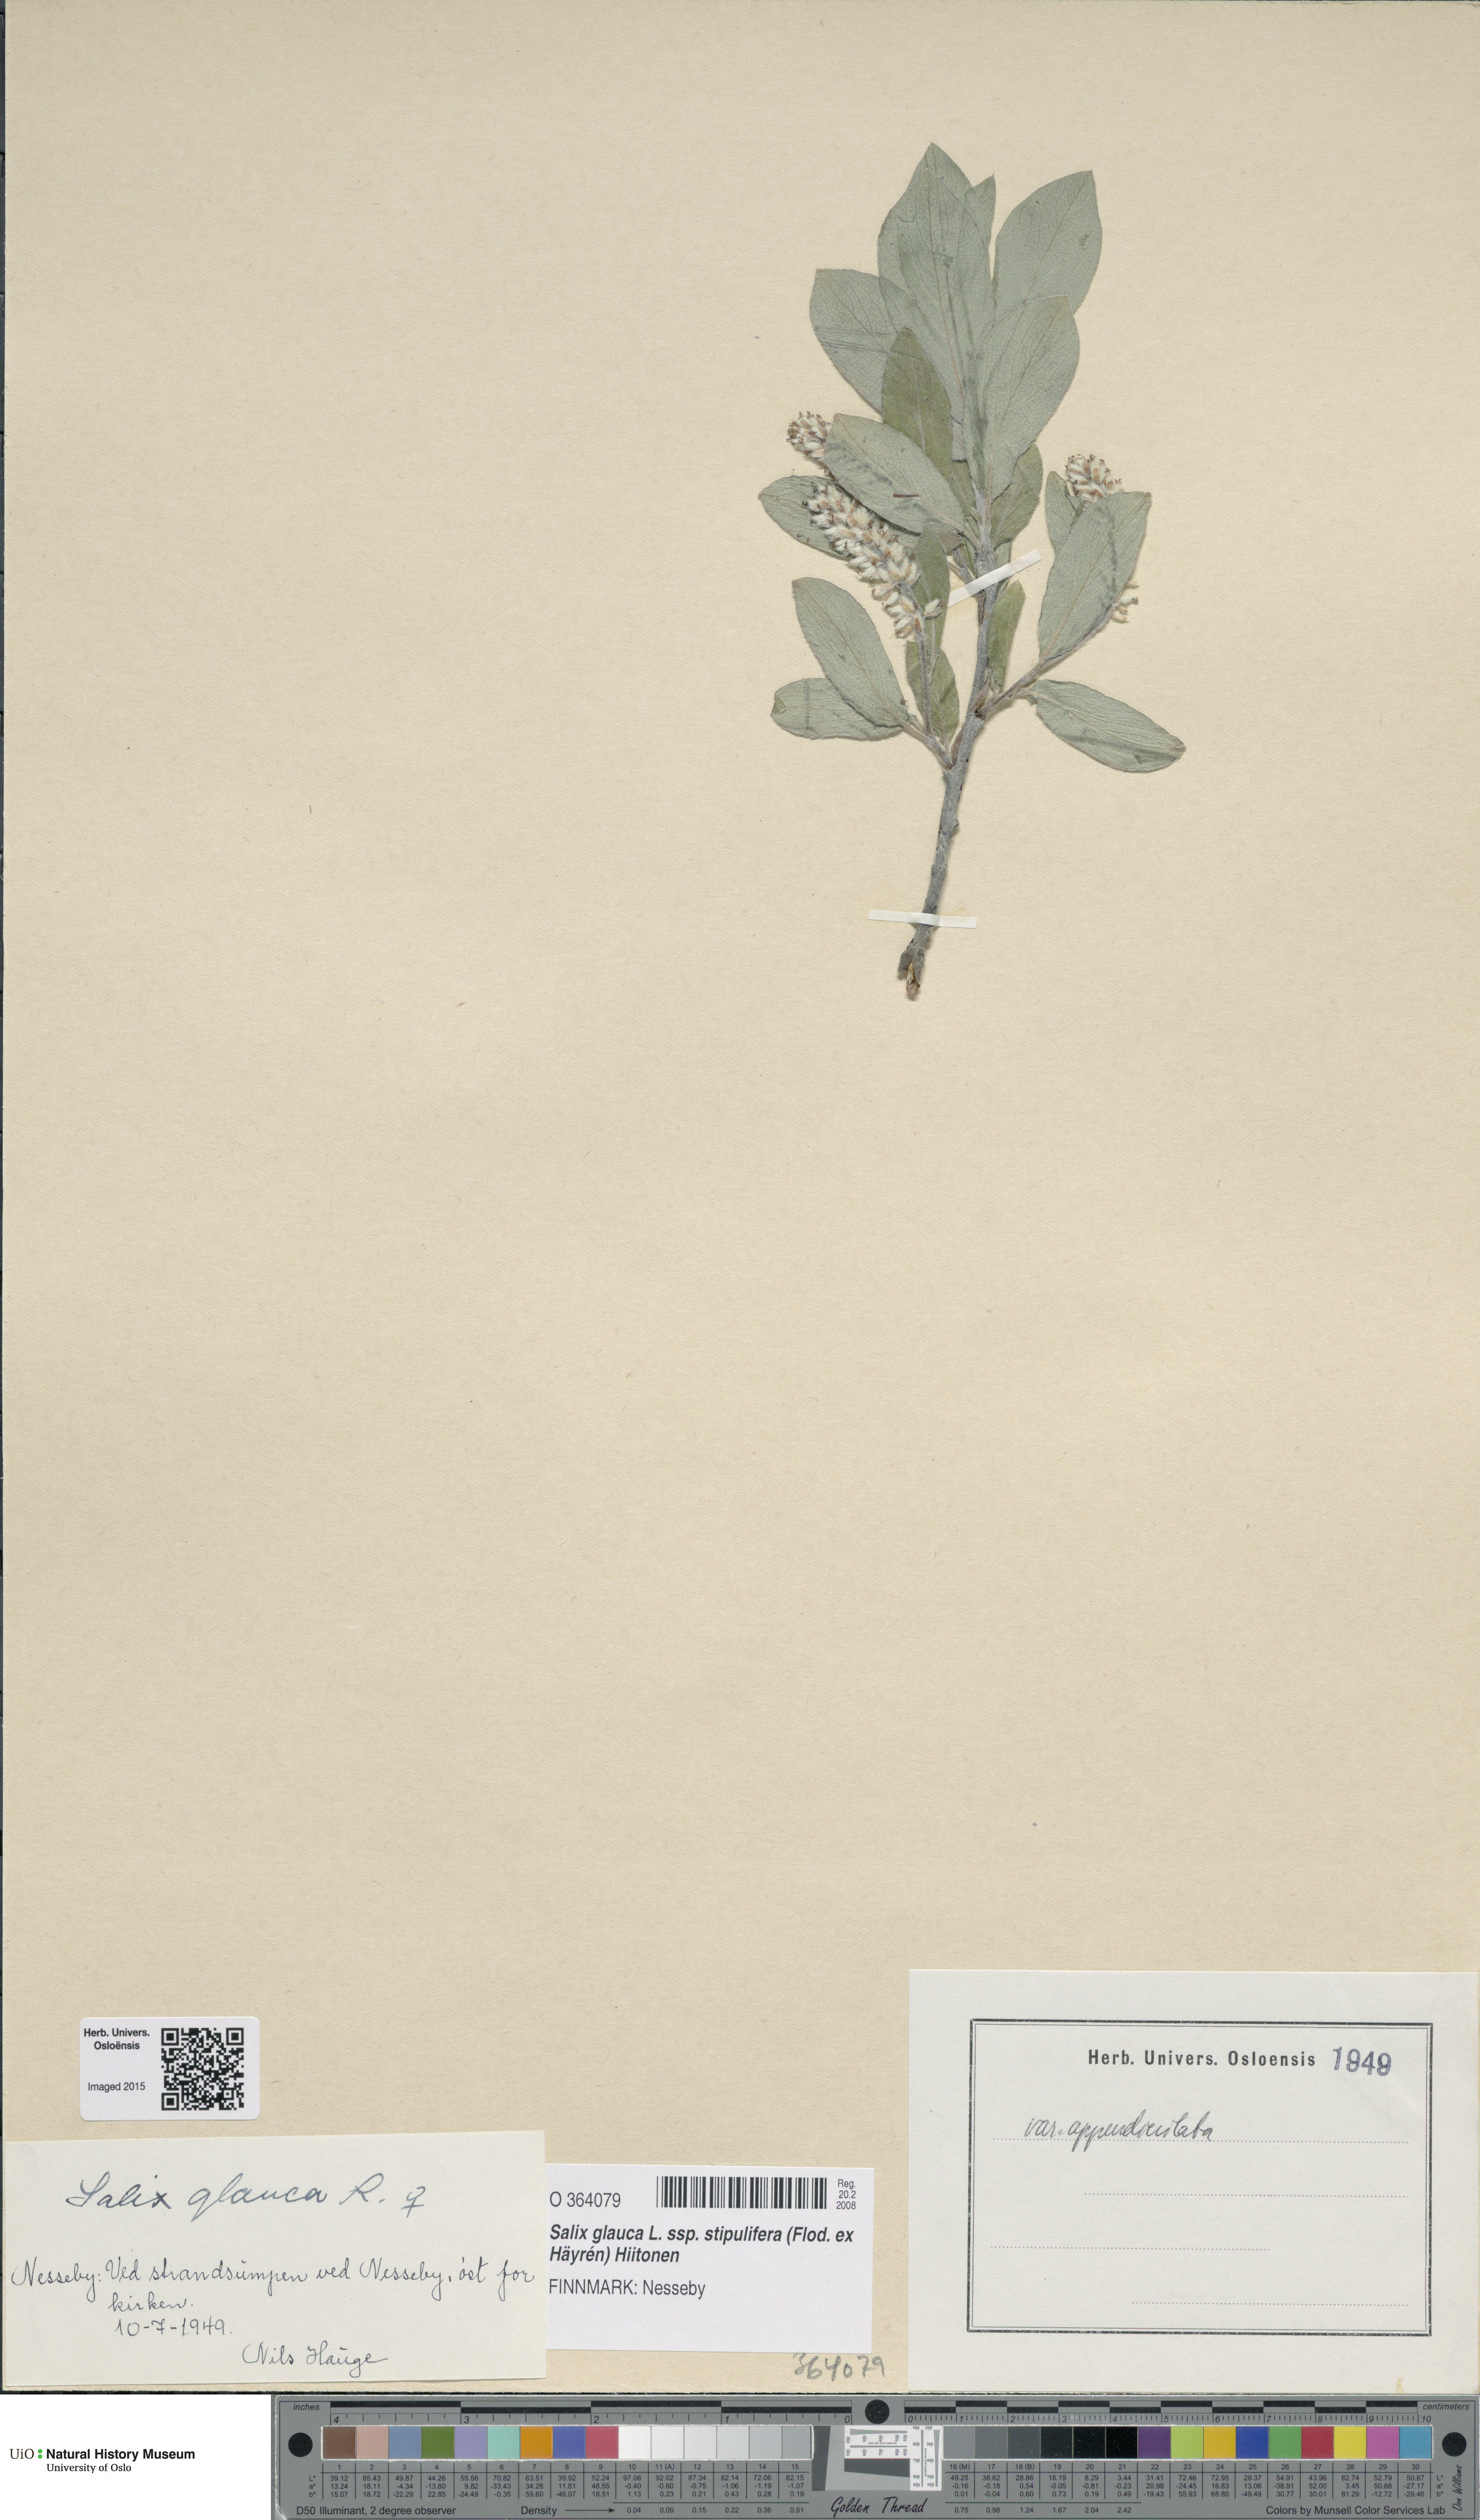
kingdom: Plantae
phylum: Tracheophyta
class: Magnoliopsida
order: Malpighiales
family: Salicaceae
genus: Salix
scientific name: Salix glauca
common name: Glaucous willow
